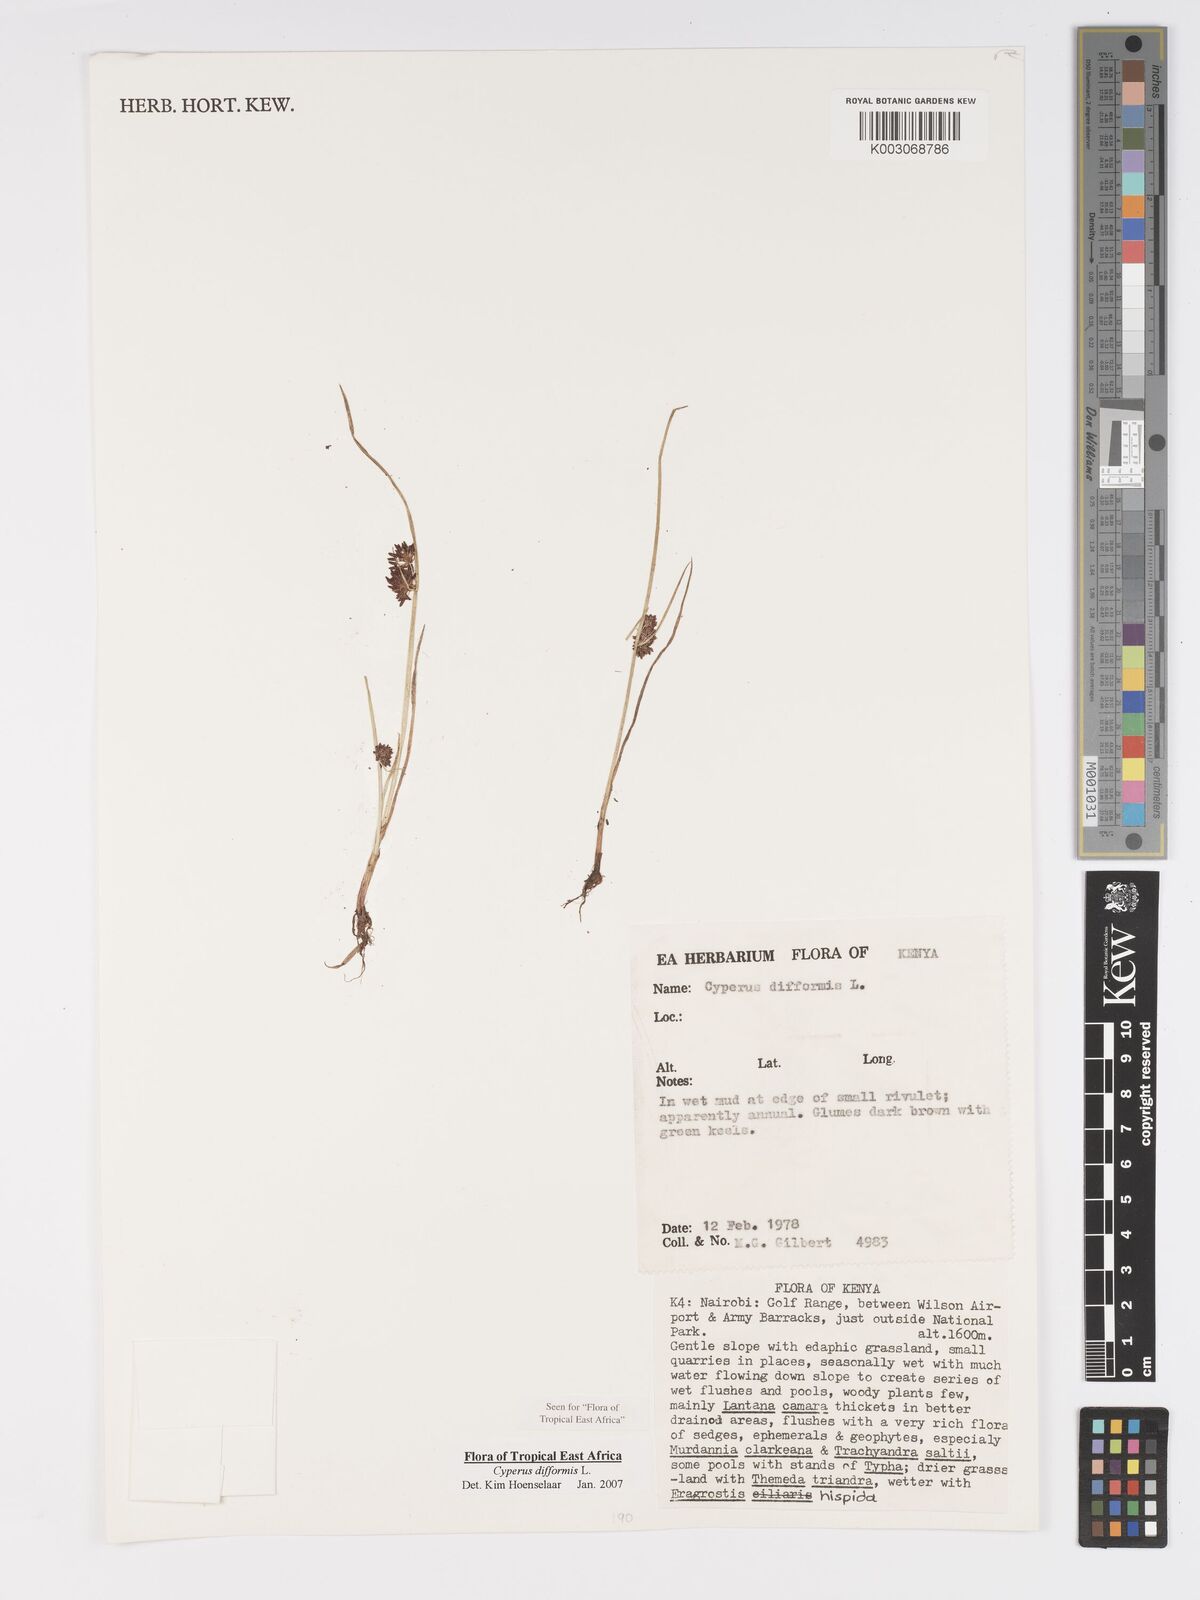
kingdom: Plantae
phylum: Tracheophyta
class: Liliopsida
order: Poales
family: Cyperaceae
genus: Cyperus
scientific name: Cyperus difformis
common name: Variable flatsedge
